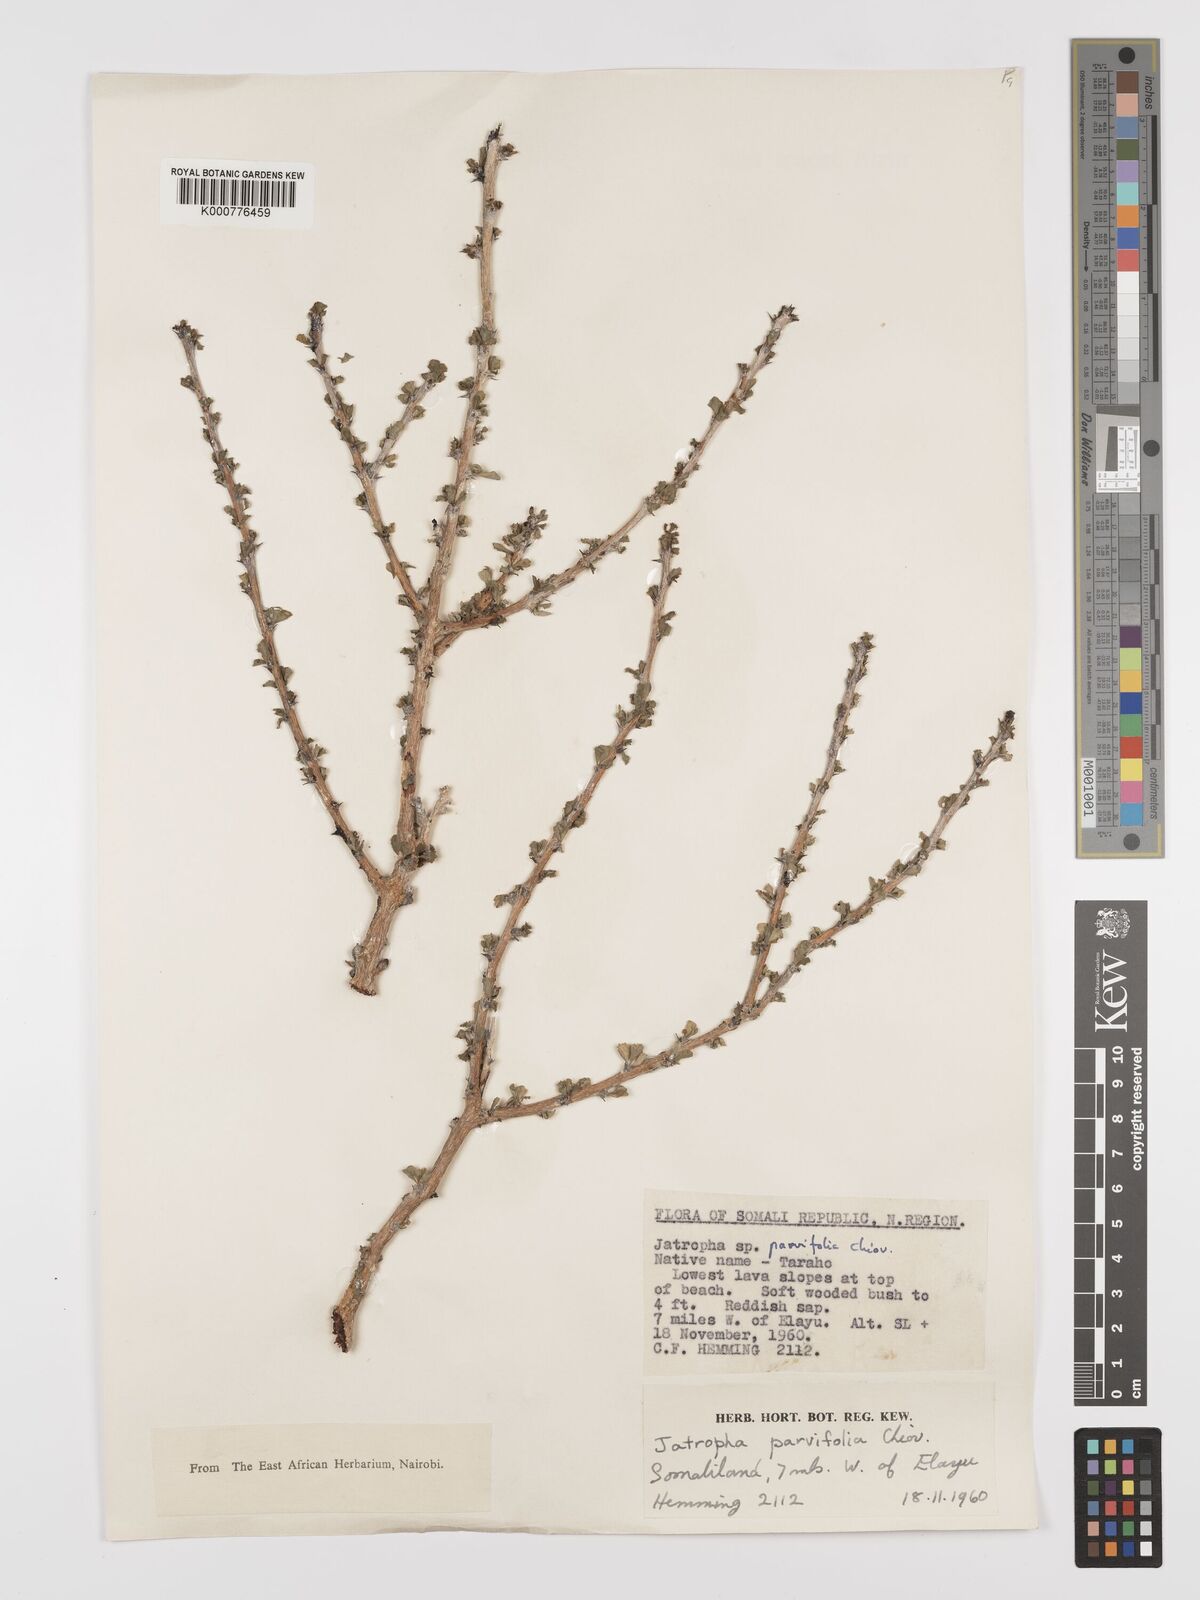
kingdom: Plantae
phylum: Tracheophyta
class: Magnoliopsida
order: Malpighiales
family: Euphorbiaceae
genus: Jatropha
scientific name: Jatropha rivae
